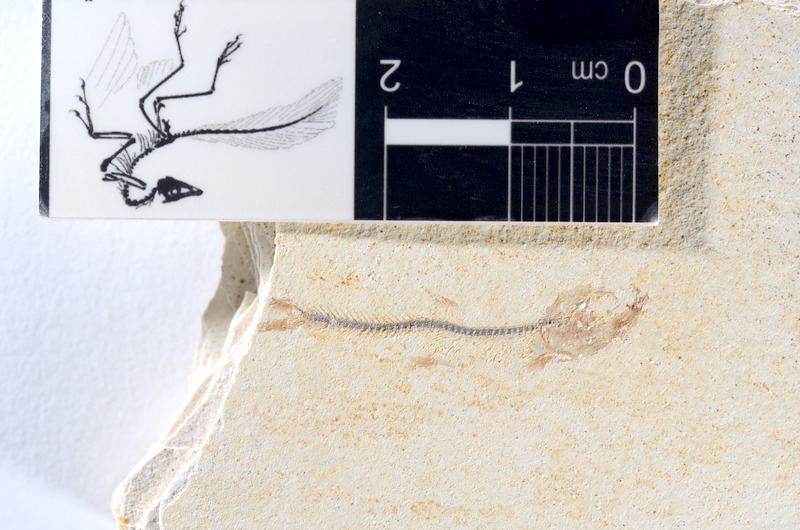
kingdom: Animalia
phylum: Chordata
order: Salmoniformes
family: Orthogonikleithridae
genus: Orthogonikleithrus
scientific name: Orthogonikleithrus hoelli
